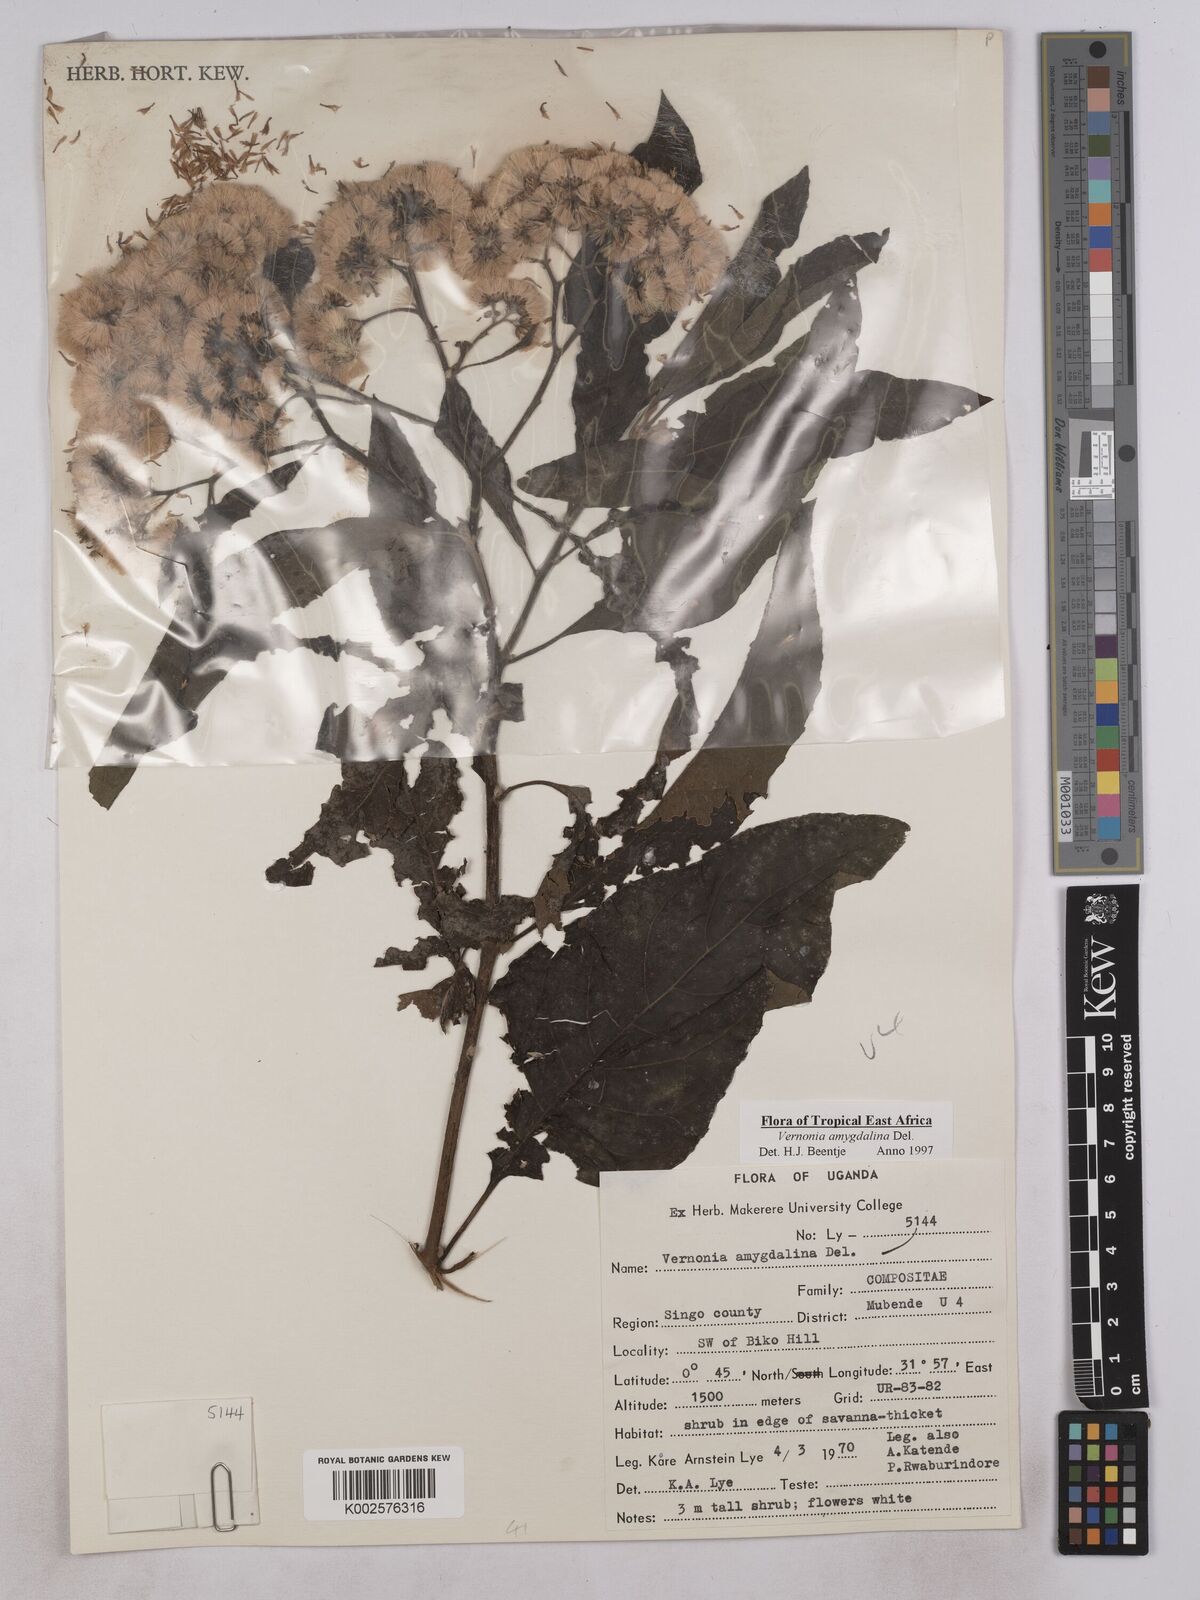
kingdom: Plantae
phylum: Tracheophyta
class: Magnoliopsida
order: Asterales
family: Asteraceae
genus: Gymnanthemum
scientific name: Gymnanthemum amygdalinum
